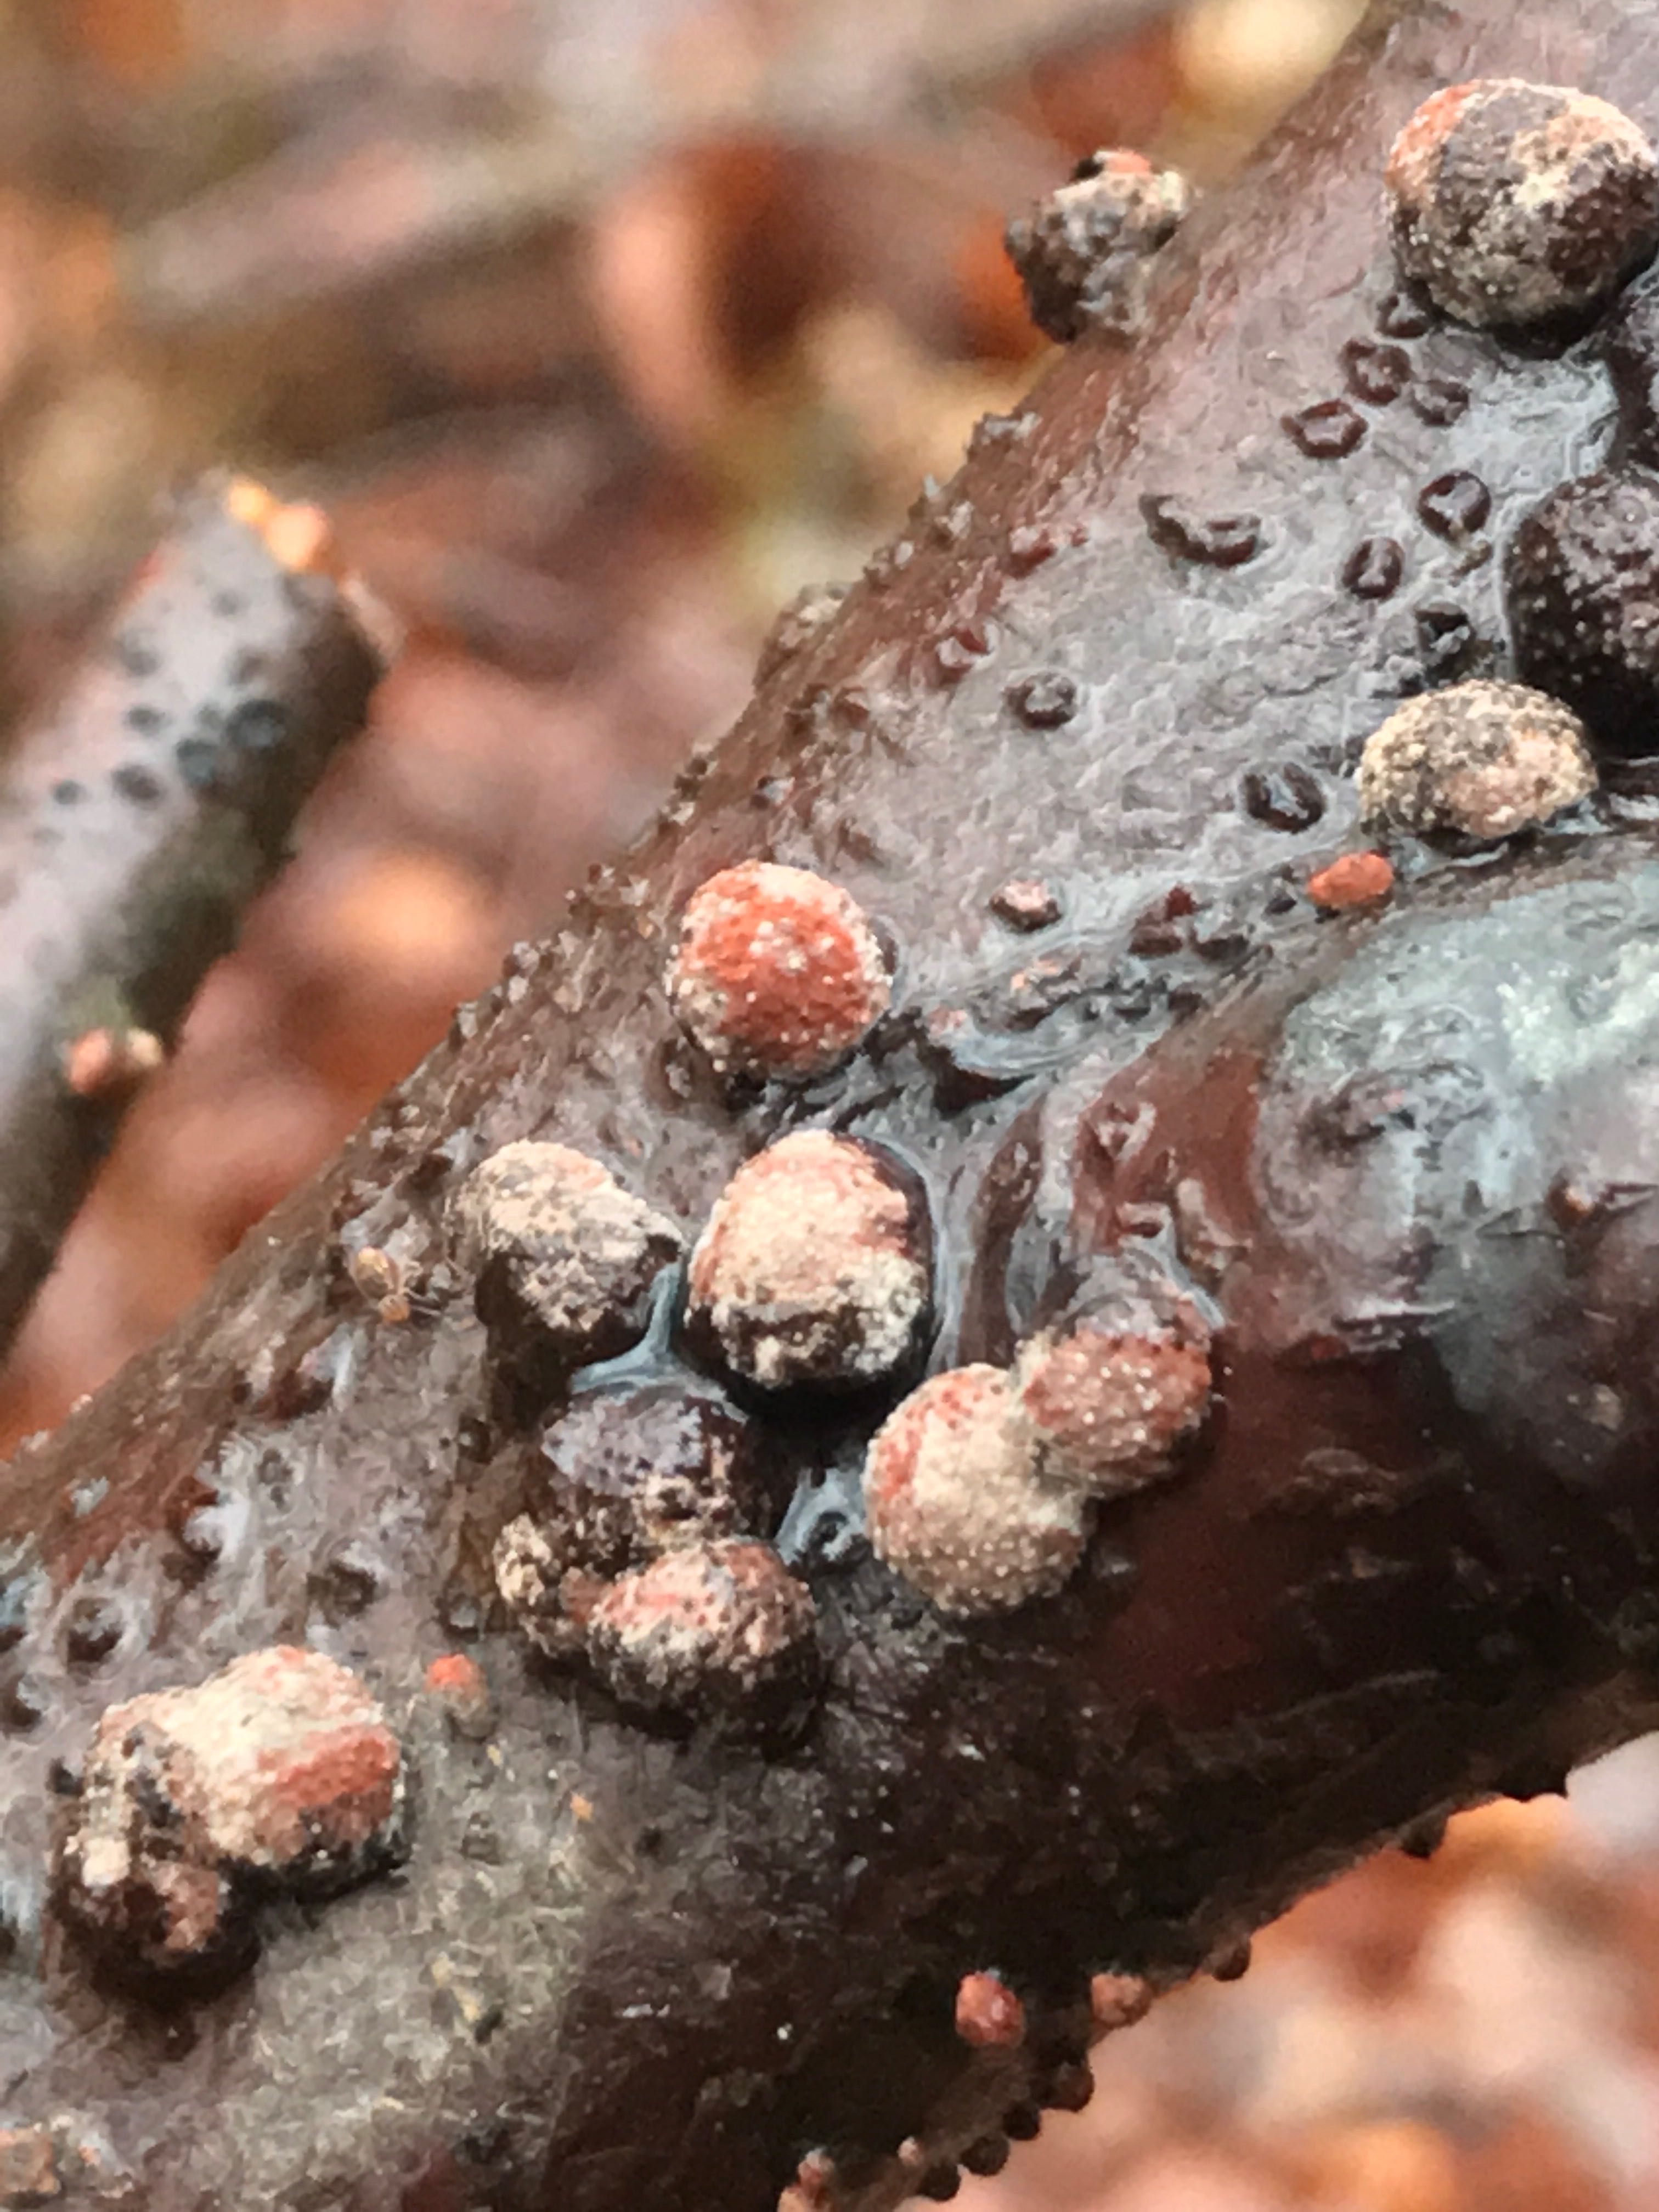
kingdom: Fungi
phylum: Ascomycota
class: Sordariomycetes
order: Xylariales
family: Hypoxylaceae
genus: Hypoxylon
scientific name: Hypoxylon fragiforme
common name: kuljordbær
